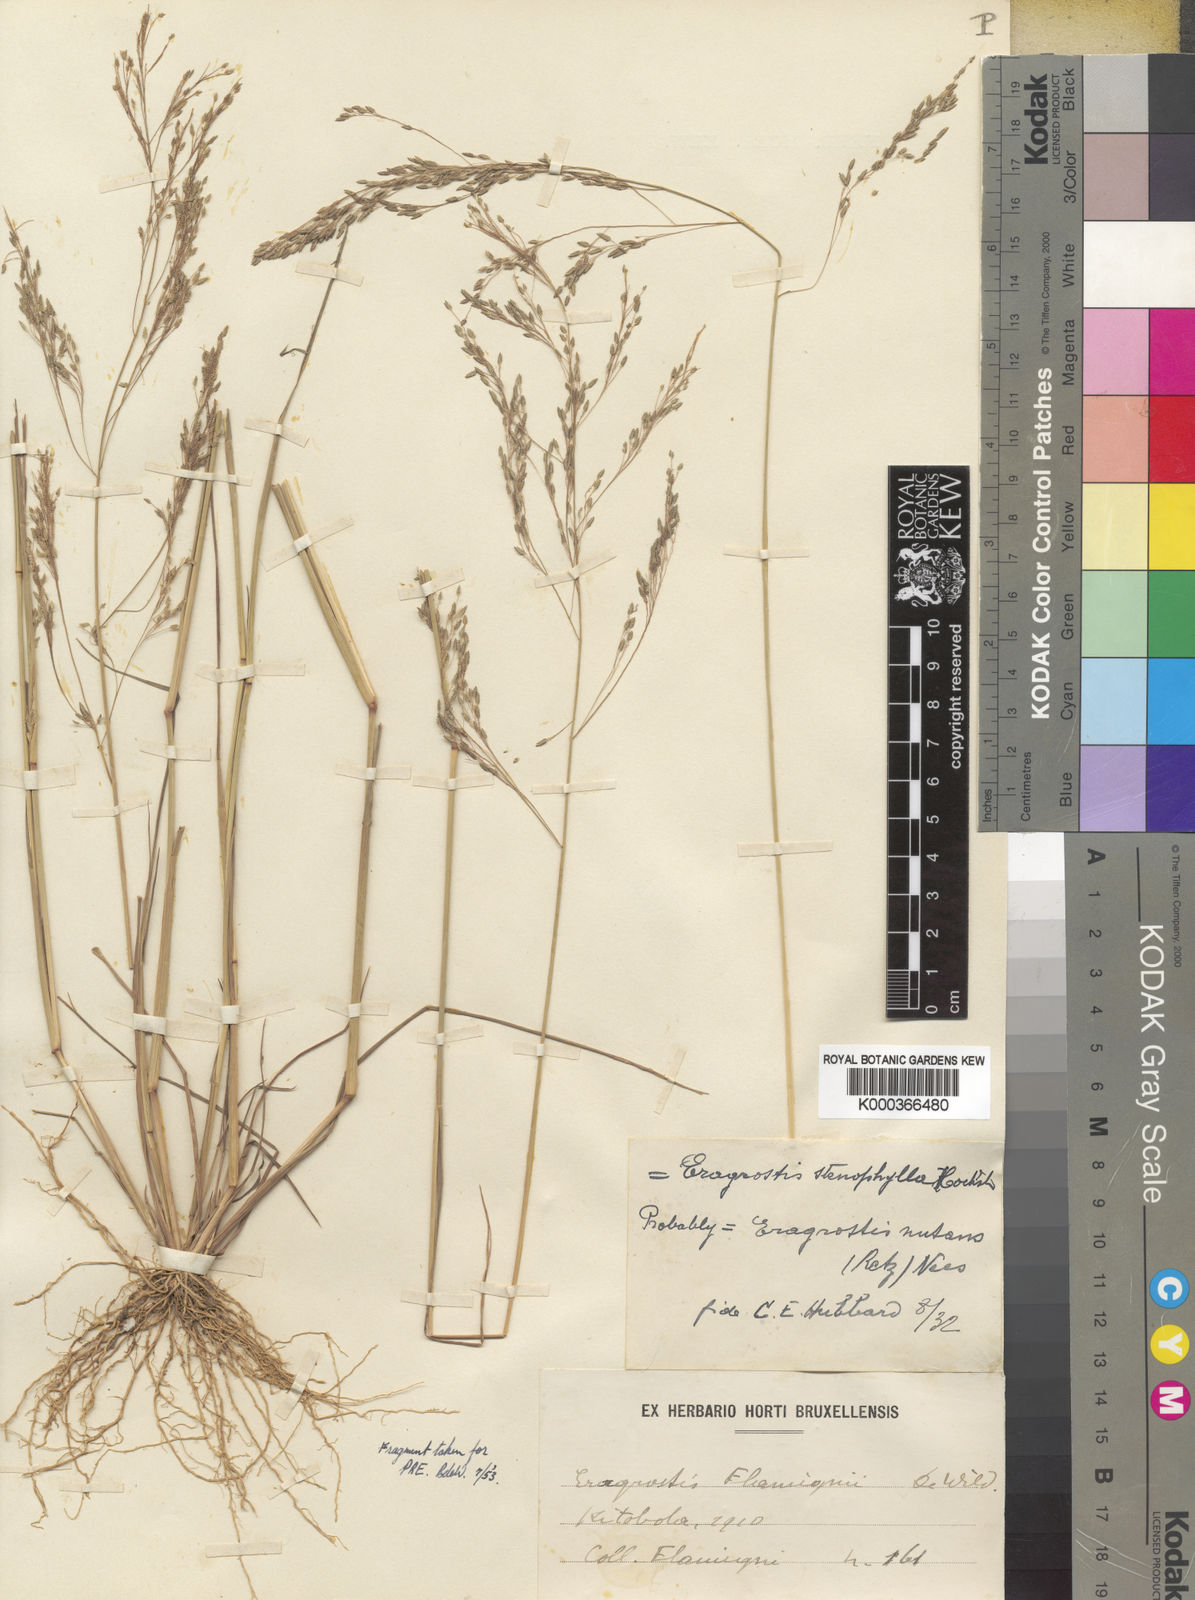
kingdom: Plantae
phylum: Tracheophyta
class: Liliopsida
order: Poales
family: Poaceae
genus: Eragrostis
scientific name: Eragrostis gangetica
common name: Slimflower lovegrass
